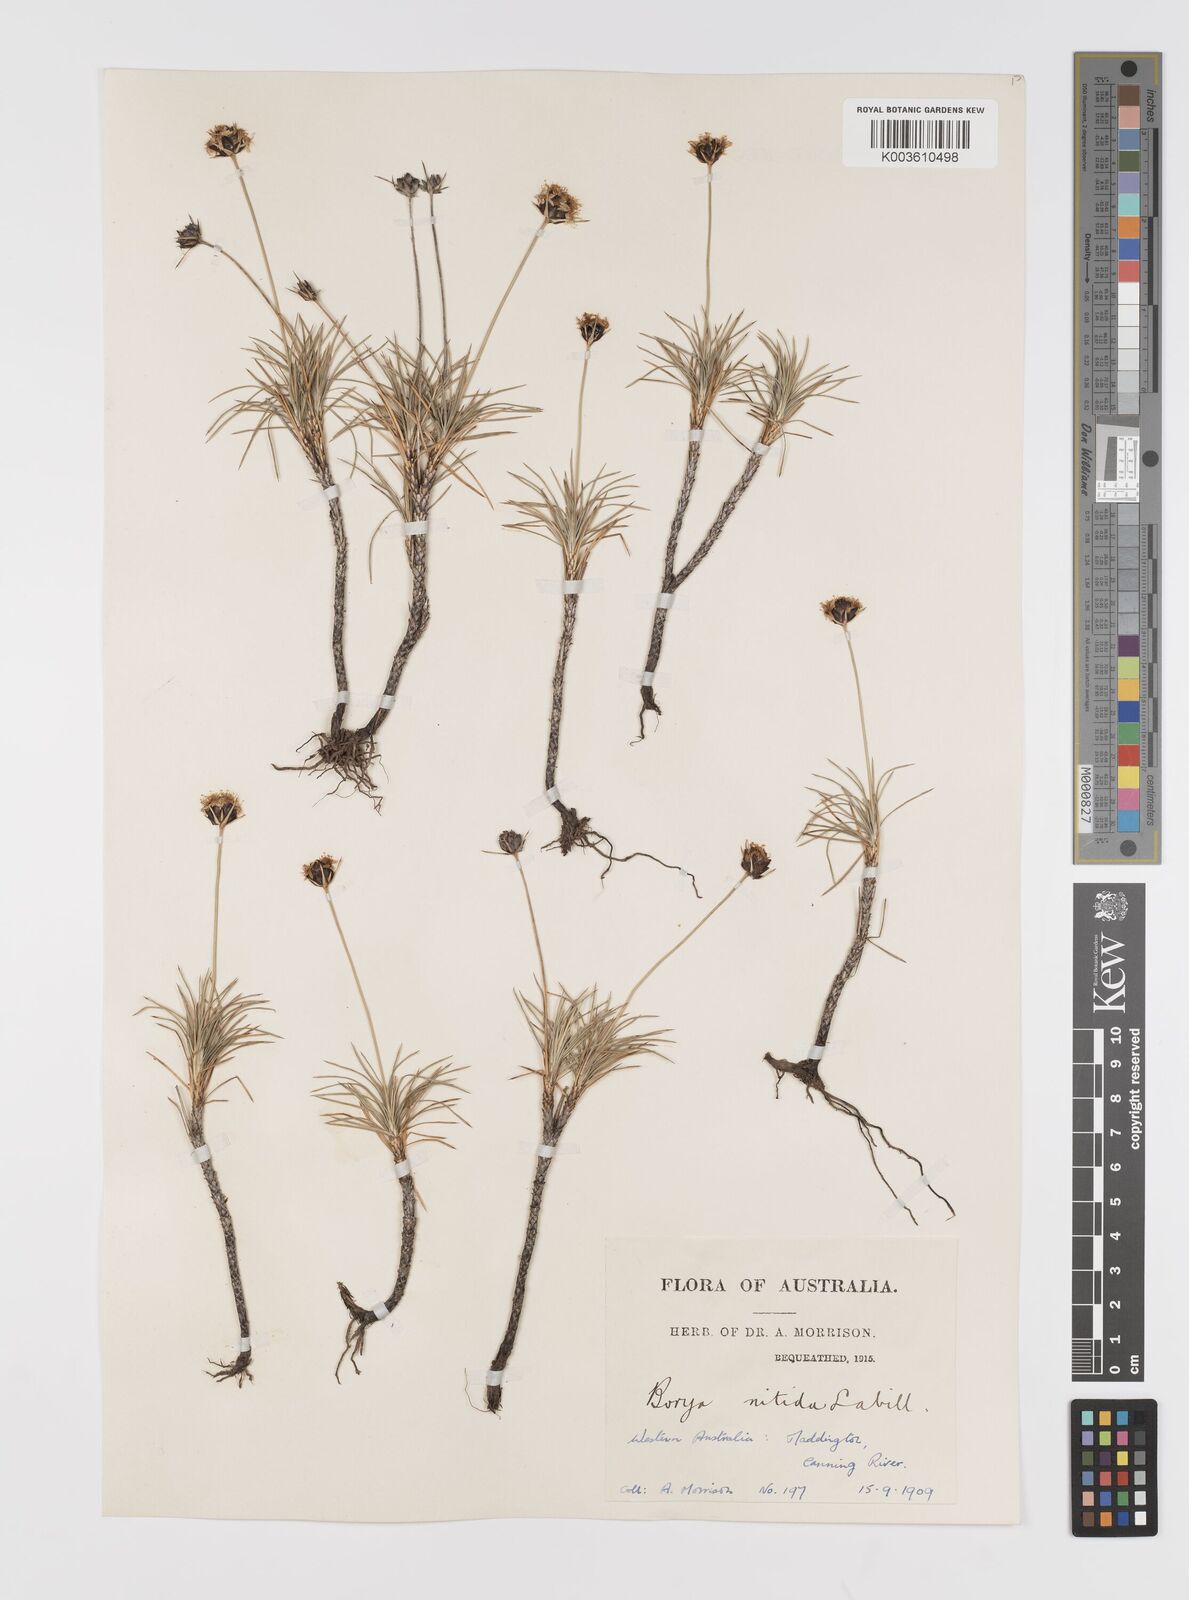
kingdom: Plantae
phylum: Tracheophyta
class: Liliopsida
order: Asparagales
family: Boryaceae
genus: Borya
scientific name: Borya nitida
